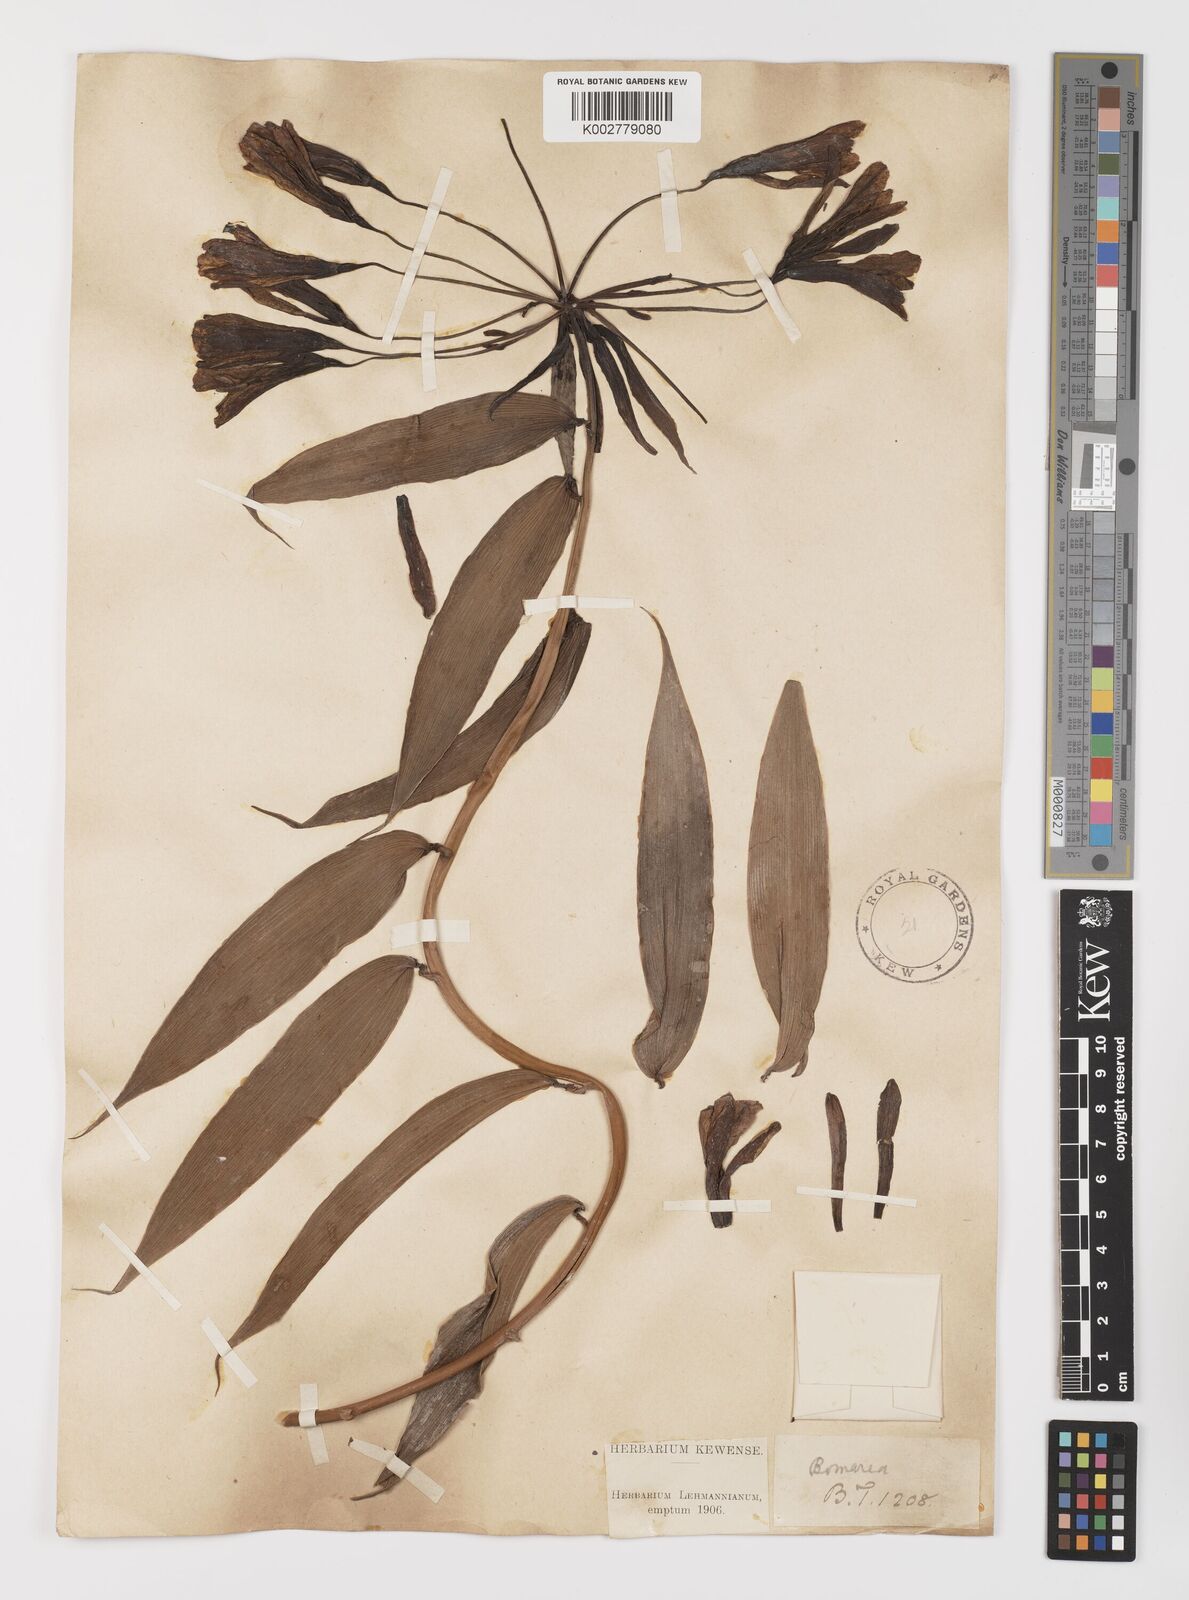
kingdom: Plantae
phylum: Tracheophyta
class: Liliopsida
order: Liliales
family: Alstroemeriaceae
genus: Bomarea
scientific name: Bomarea
